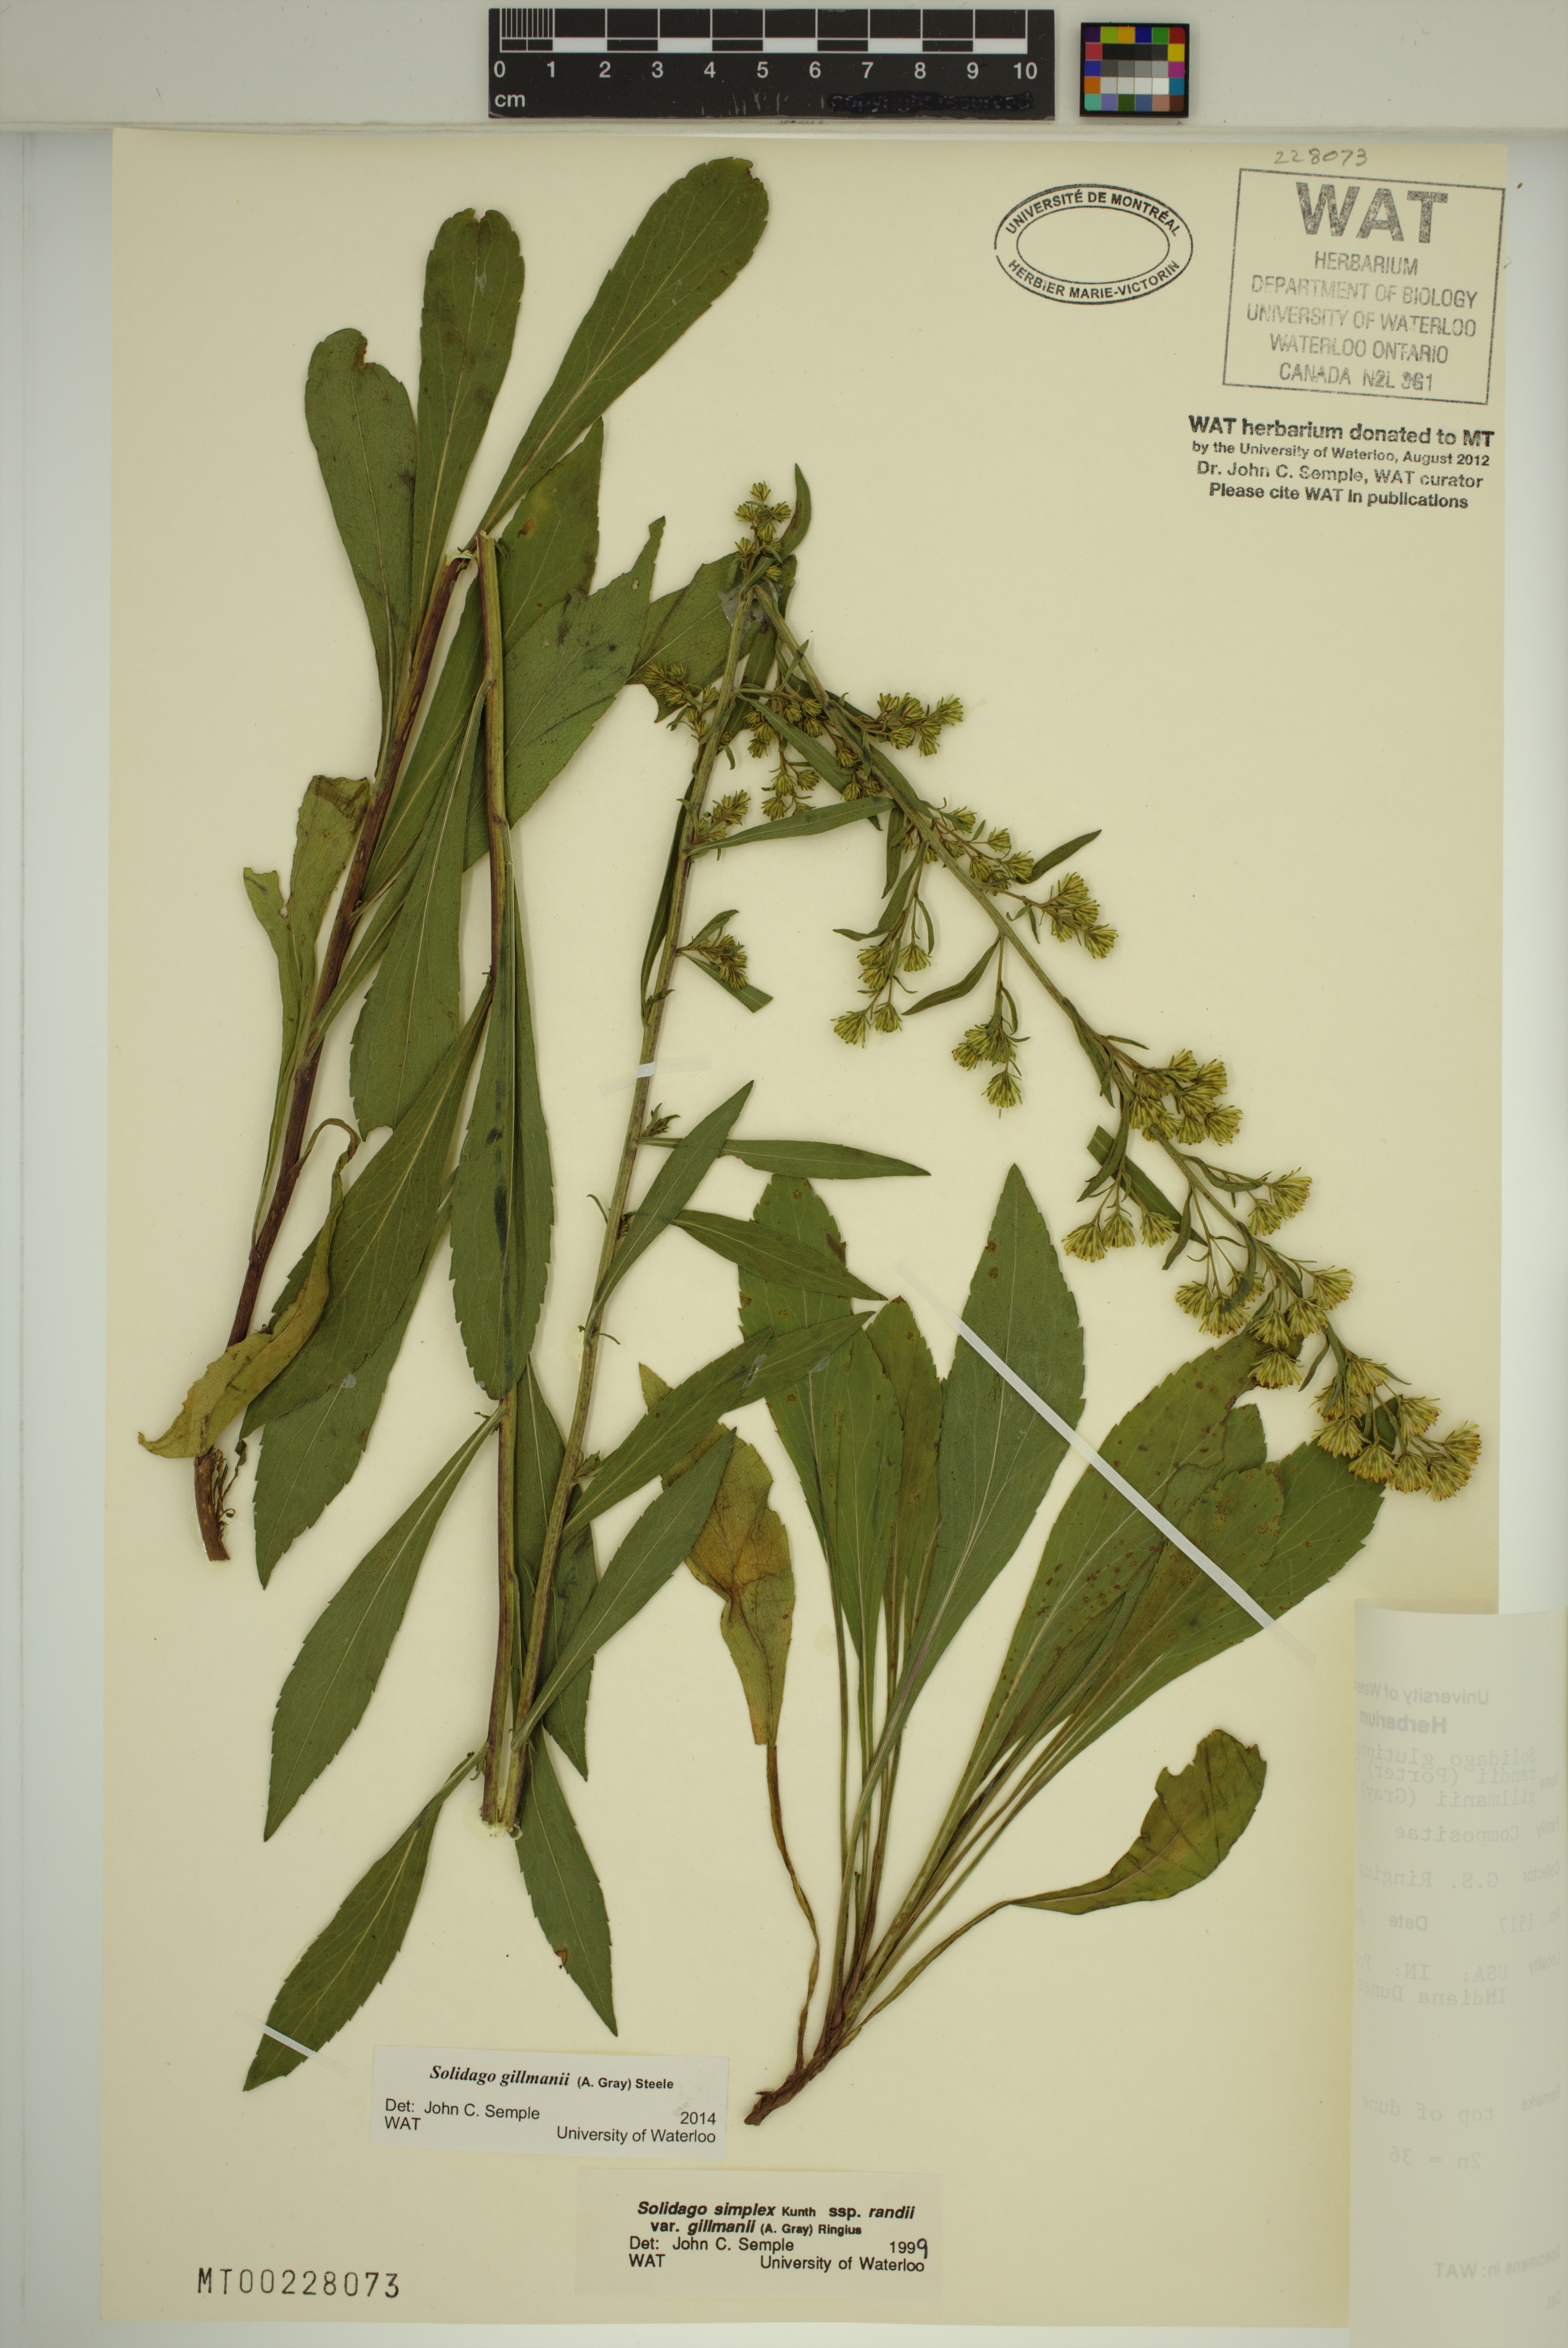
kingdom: Plantae
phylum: Tracheophyta
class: Magnoliopsida
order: Asterales
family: Asteraceae
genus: Solidago
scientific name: Solidago gillmanii
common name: Gillman's goldenrod
